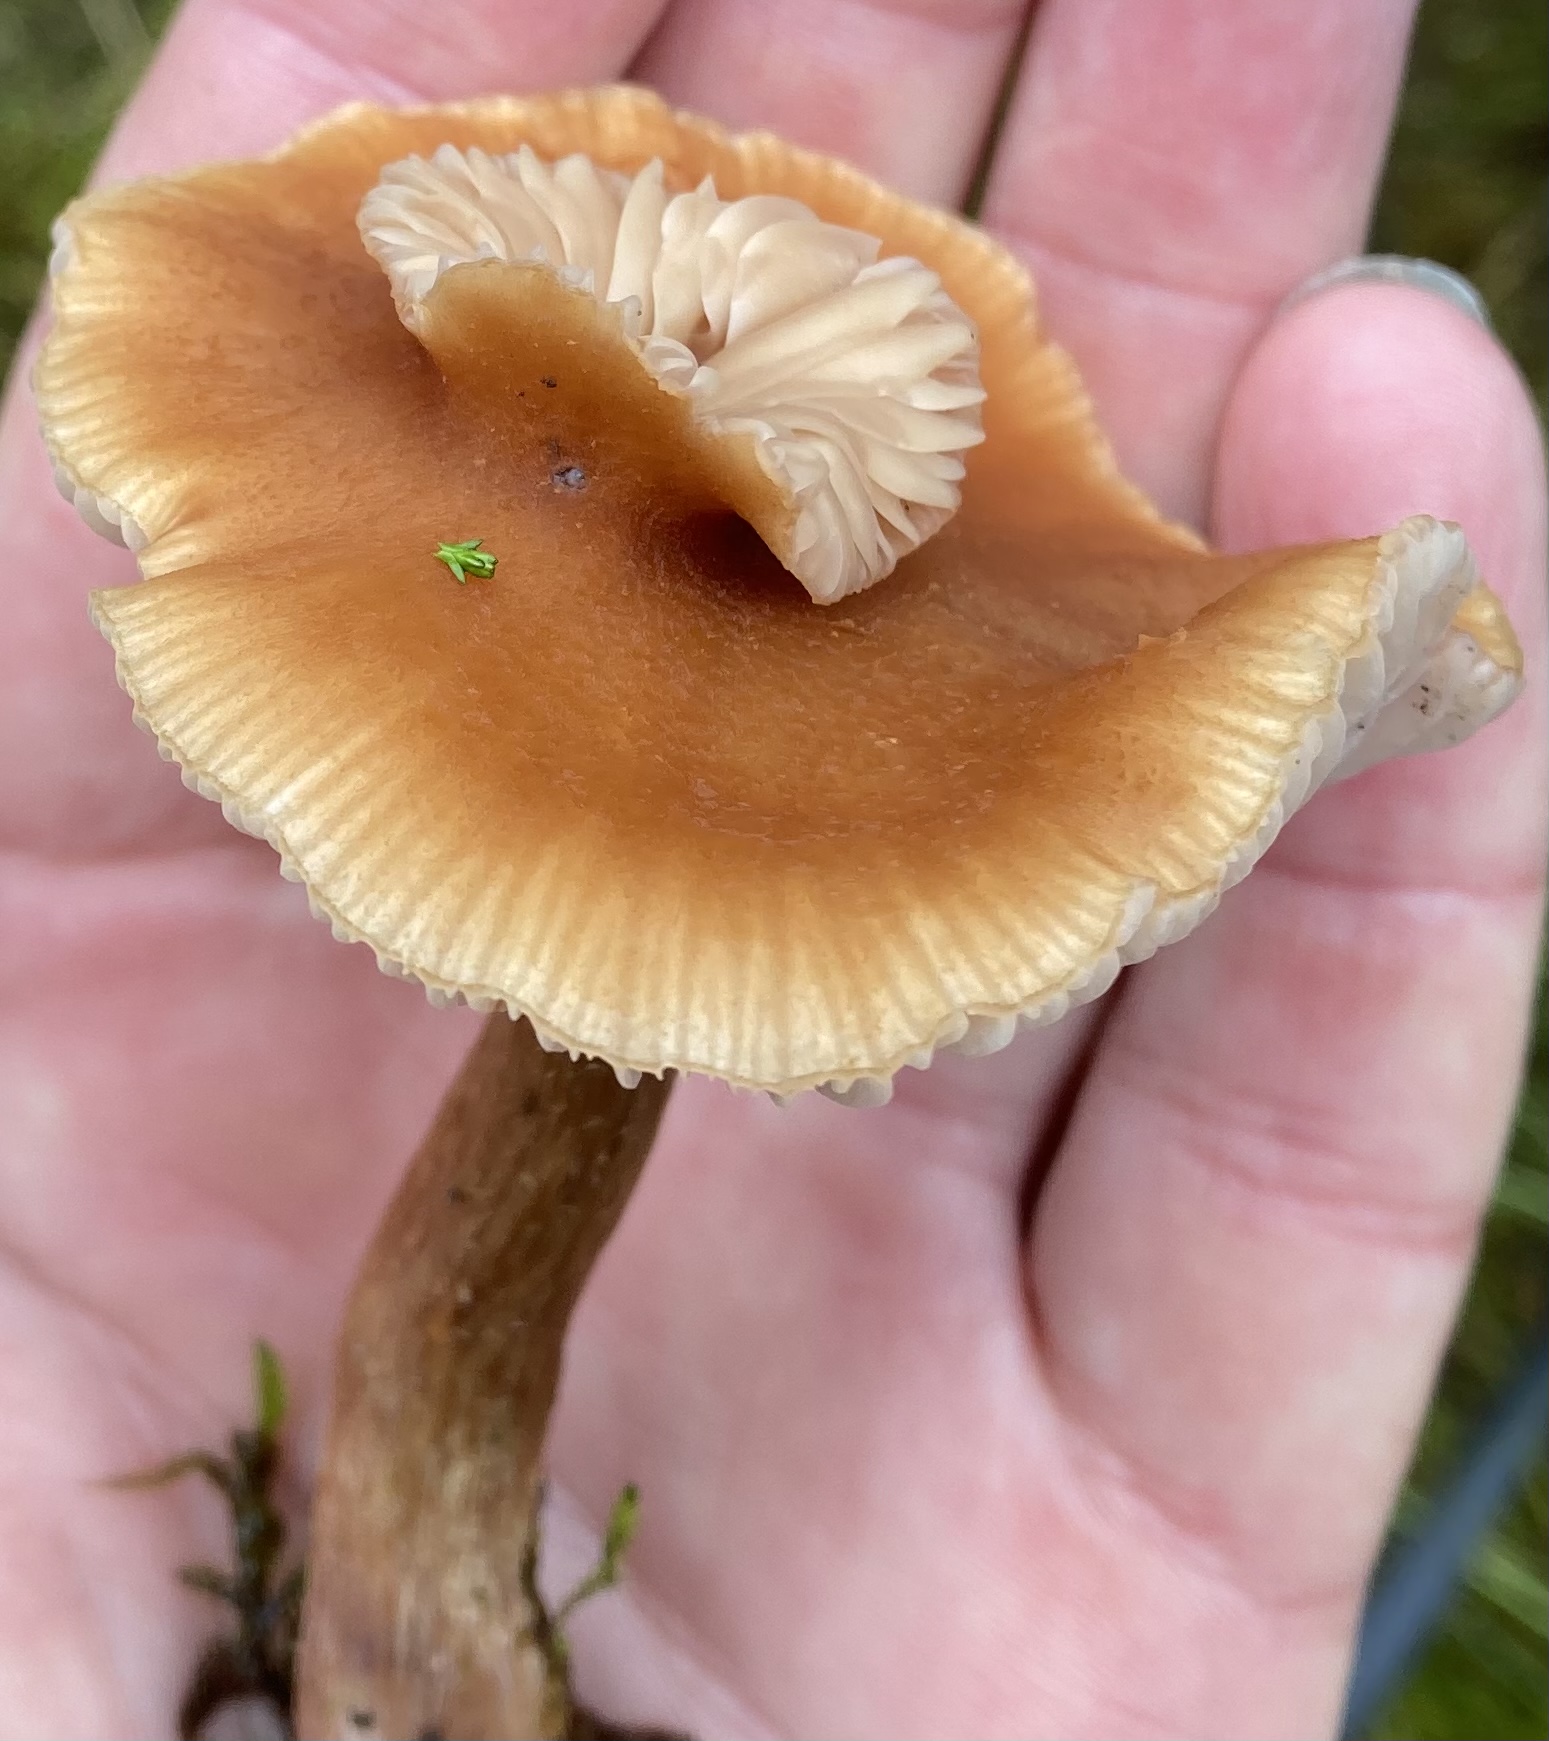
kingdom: Fungi
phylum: Basidiomycota
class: Agaricomycetes
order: Agaricales
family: Hydnangiaceae
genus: Laccaria
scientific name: Laccaria
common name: ametysthat
